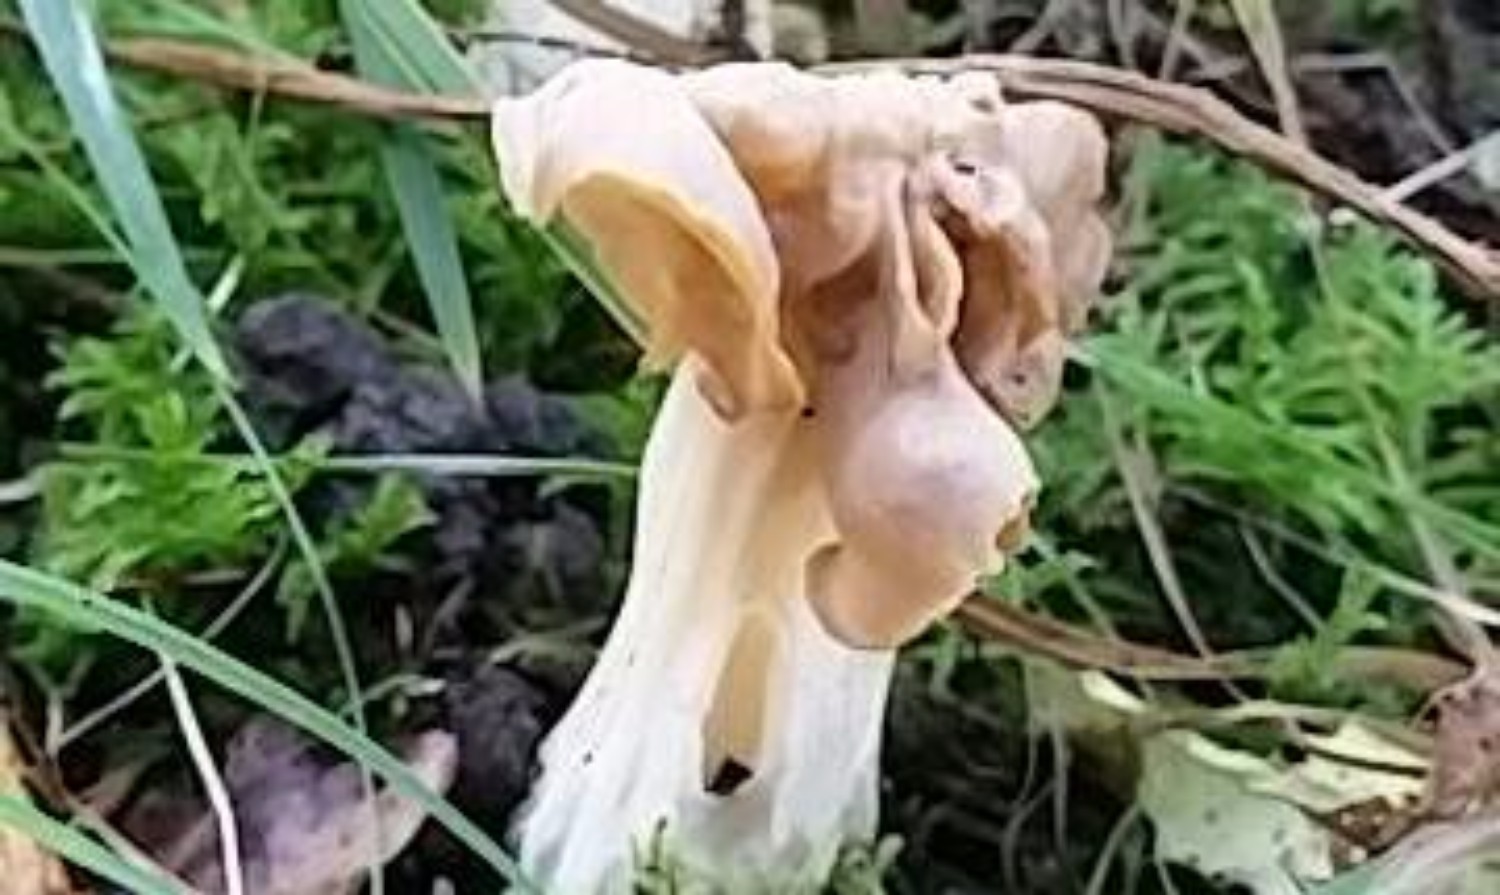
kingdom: Fungi
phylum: Ascomycota
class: Pezizomycetes
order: Pezizales
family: Helvellaceae
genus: Helvella
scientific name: Helvella crispa
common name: kruset foldhat
